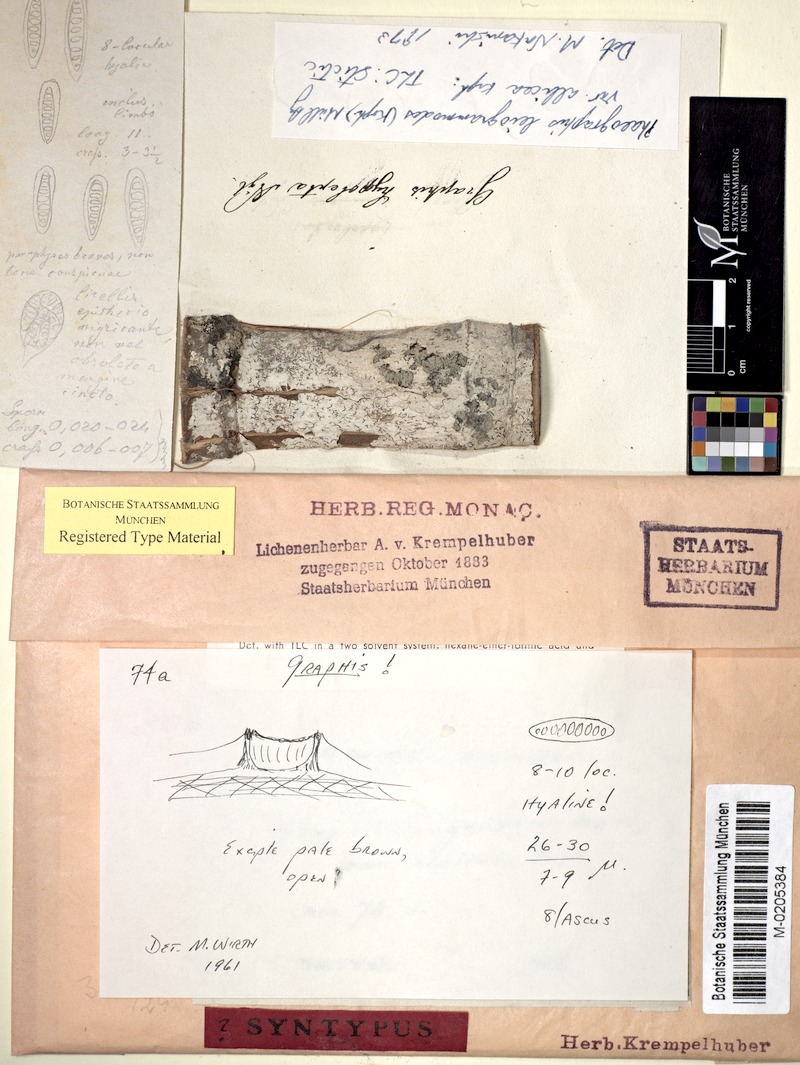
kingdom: Fungi
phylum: Ascomycota
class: Lecanoromycetes
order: Ostropales
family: Graphidaceae
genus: Phaeographis
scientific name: Phaeographis leiogrammodes
